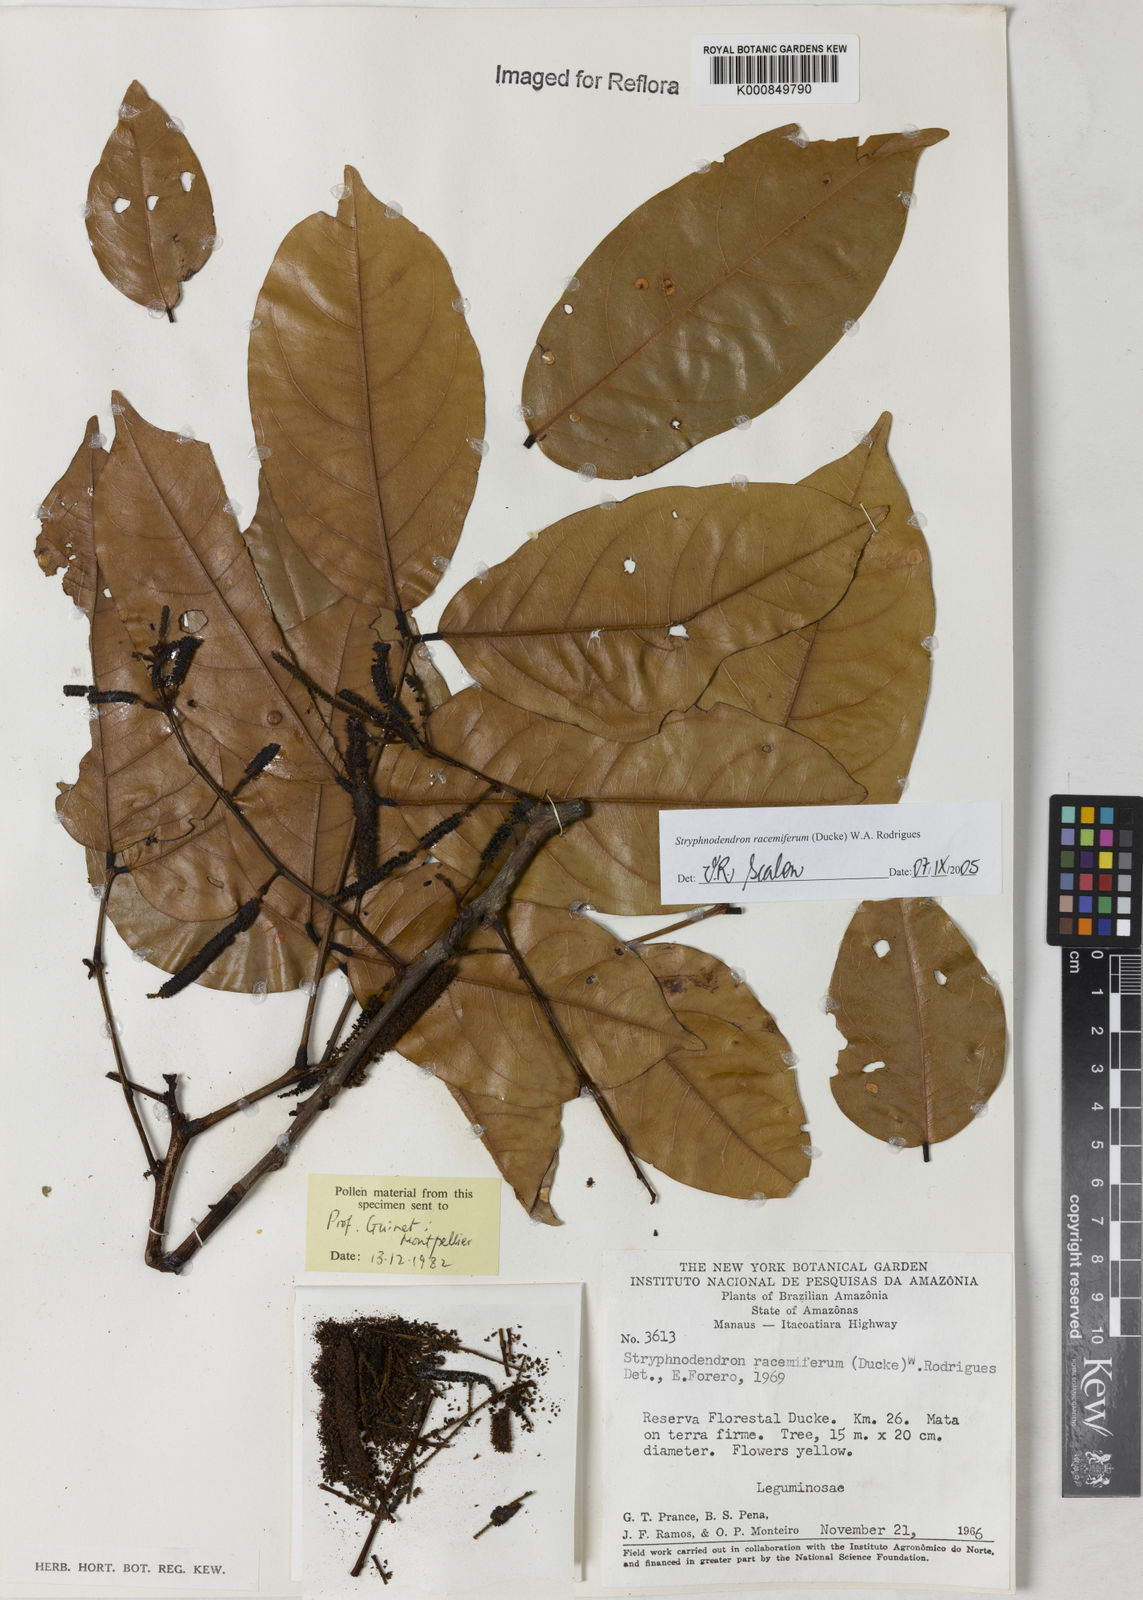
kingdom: Plantae
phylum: Tracheophyta
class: Magnoliopsida
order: Fabales
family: Fabaceae
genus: Stryphnodendron
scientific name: Stryphnodendron
